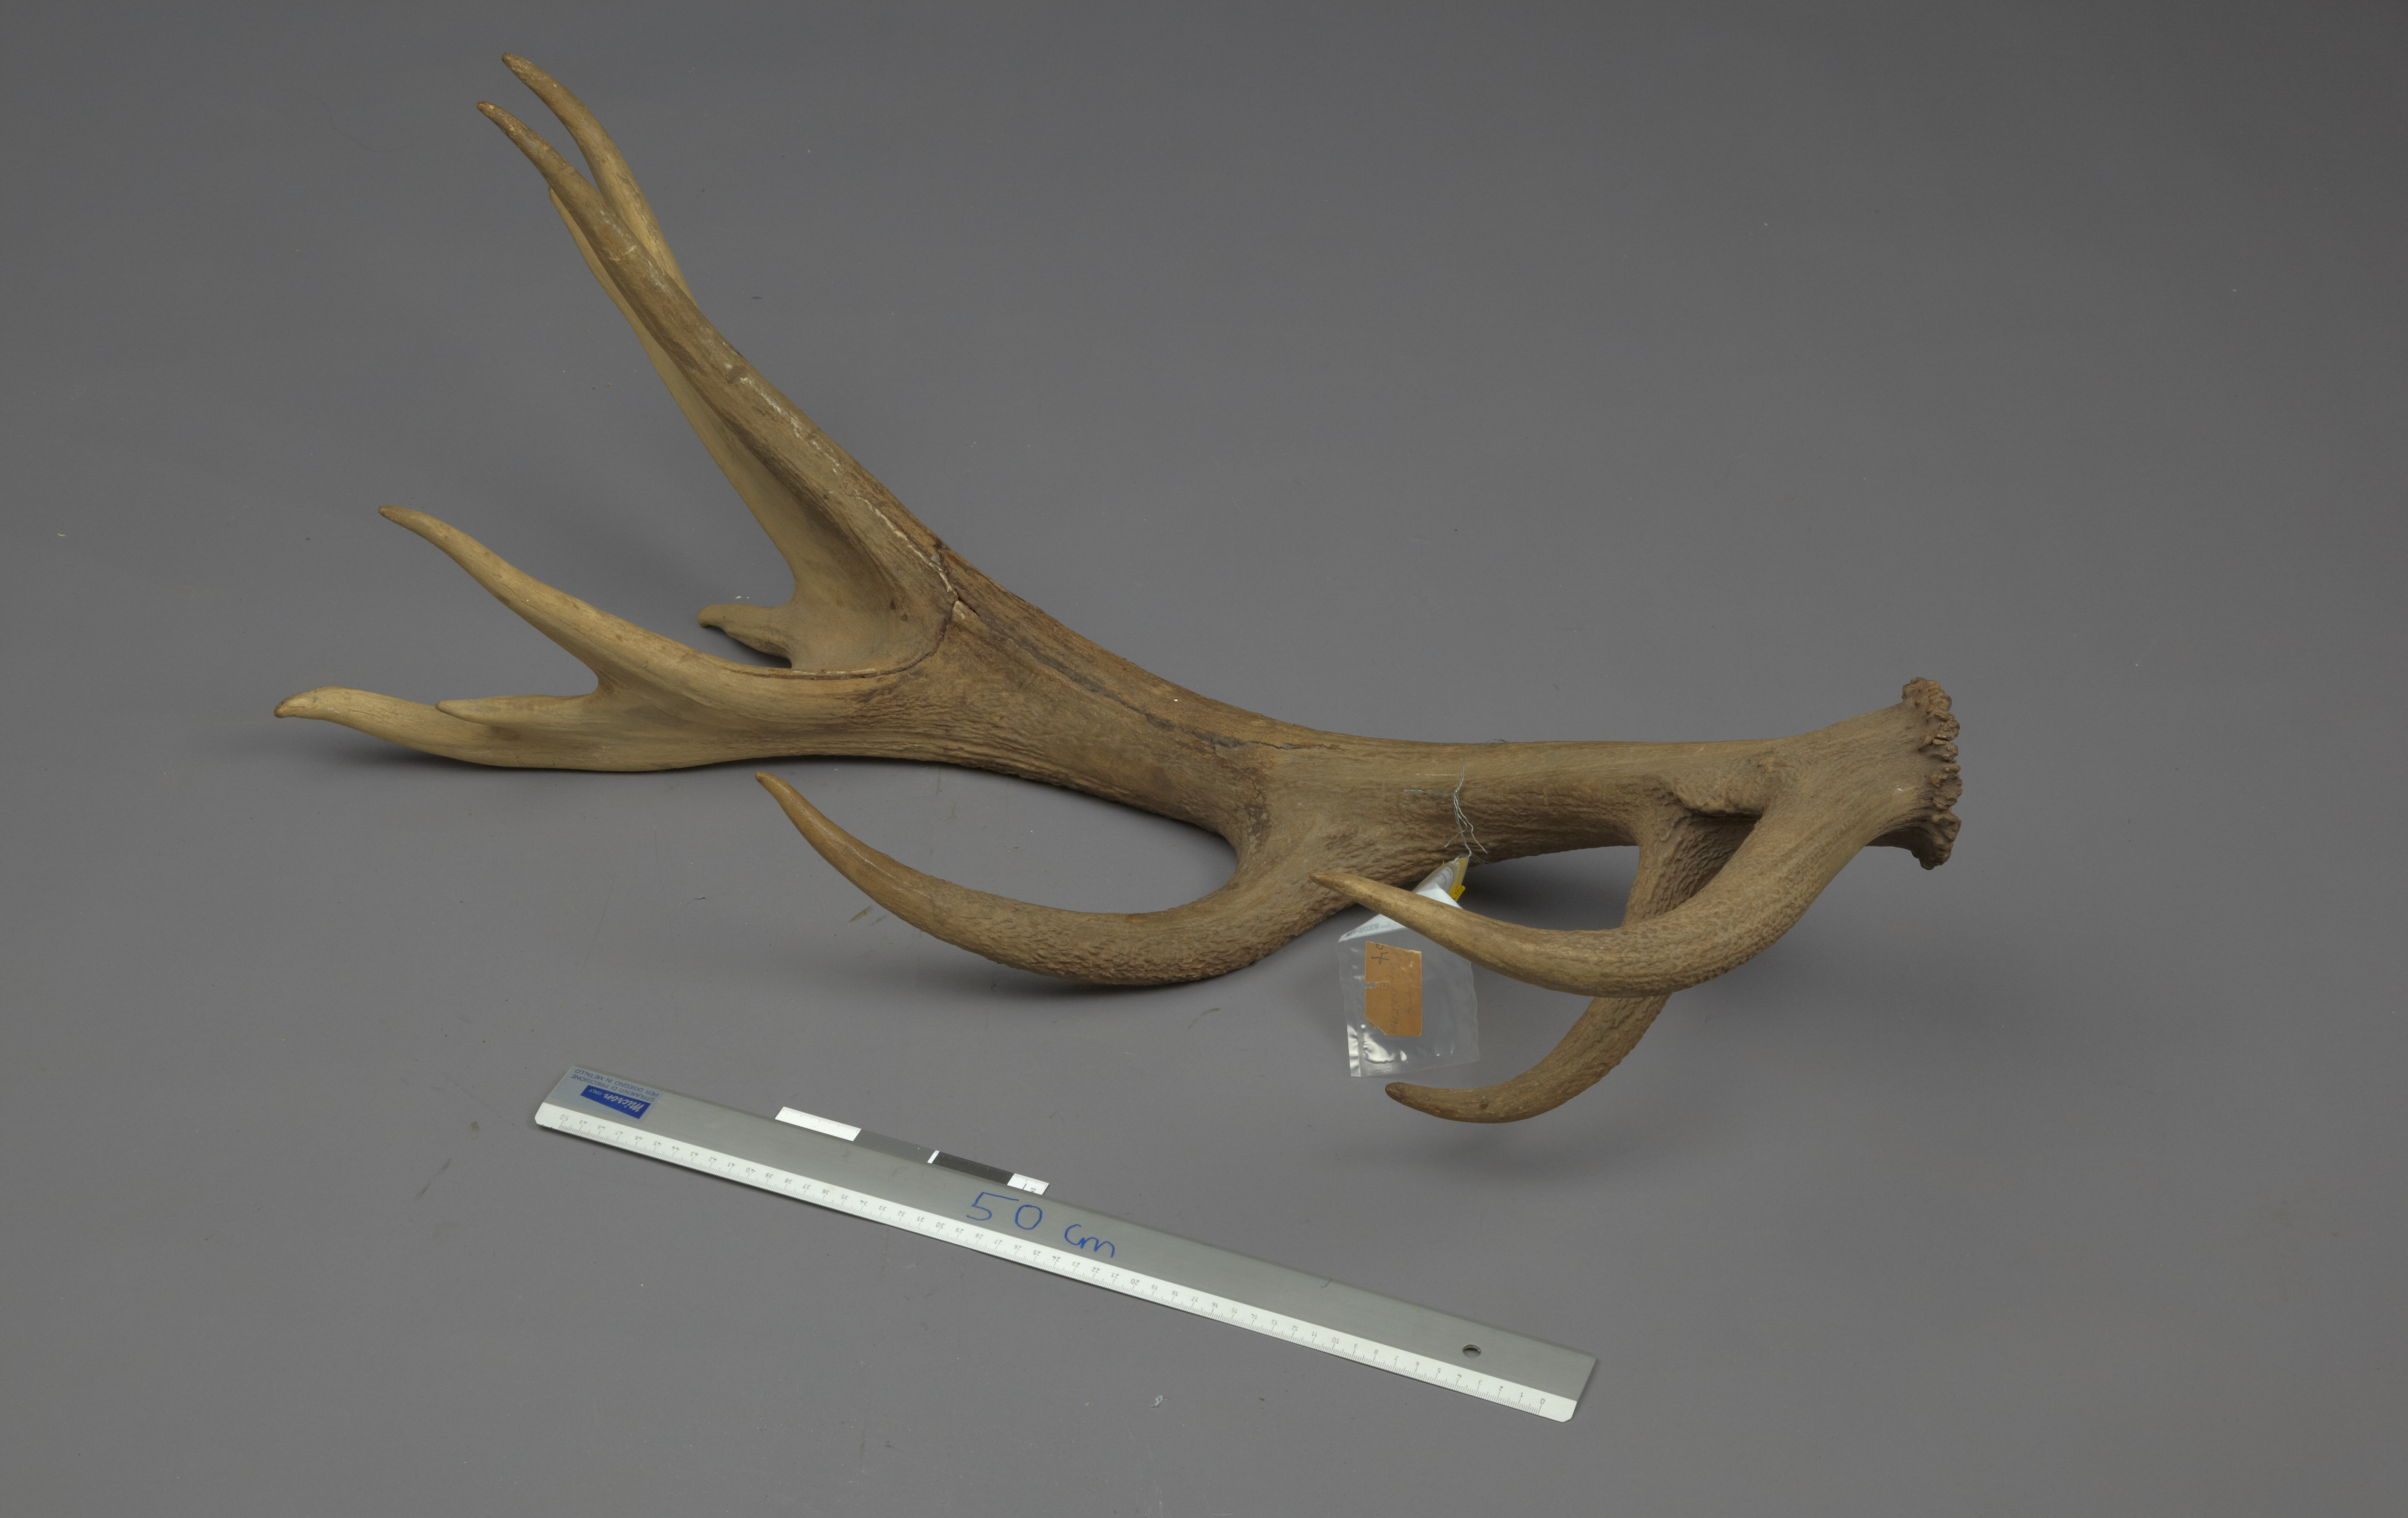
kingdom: Animalia
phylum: Chordata
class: Mammalia
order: Artiodactyla
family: Cervidae
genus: Cervus
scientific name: Cervus elaphus
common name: Red deer
